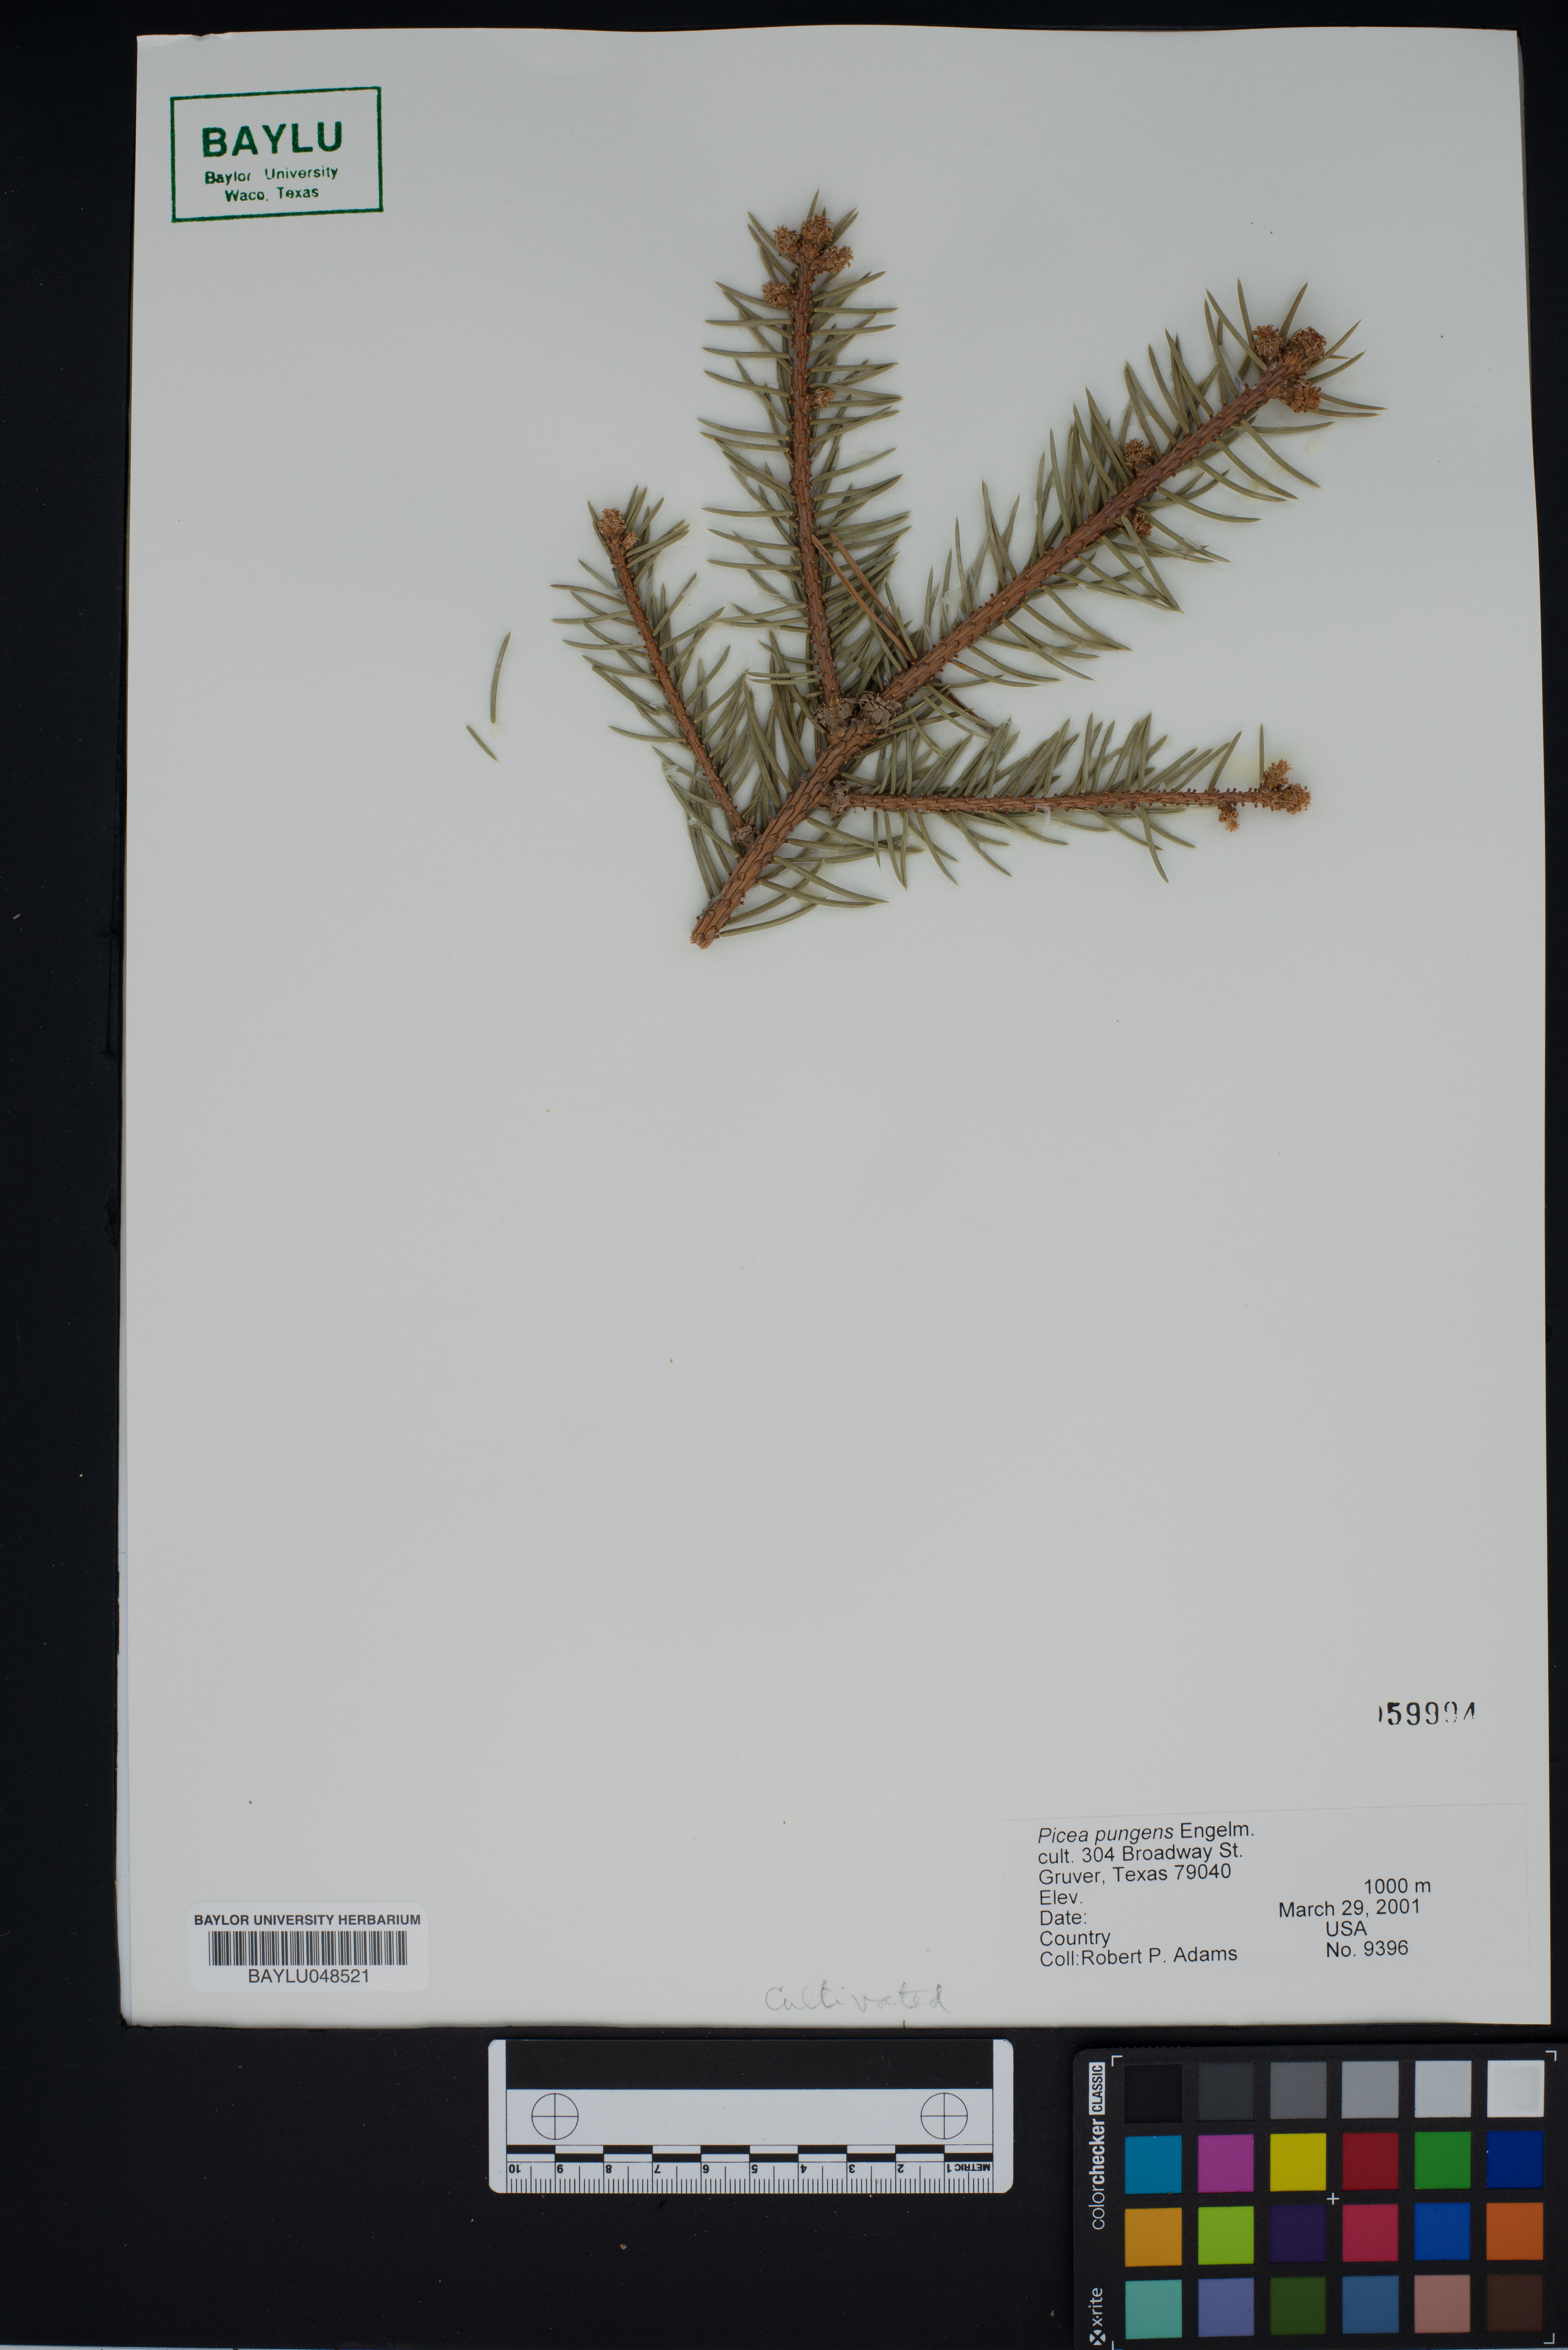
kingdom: Plantae
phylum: Tracheophyta
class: Pinopsida
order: Pinales
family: Pinaceae
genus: Picea
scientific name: Picea pungens
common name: Colorado spruce
